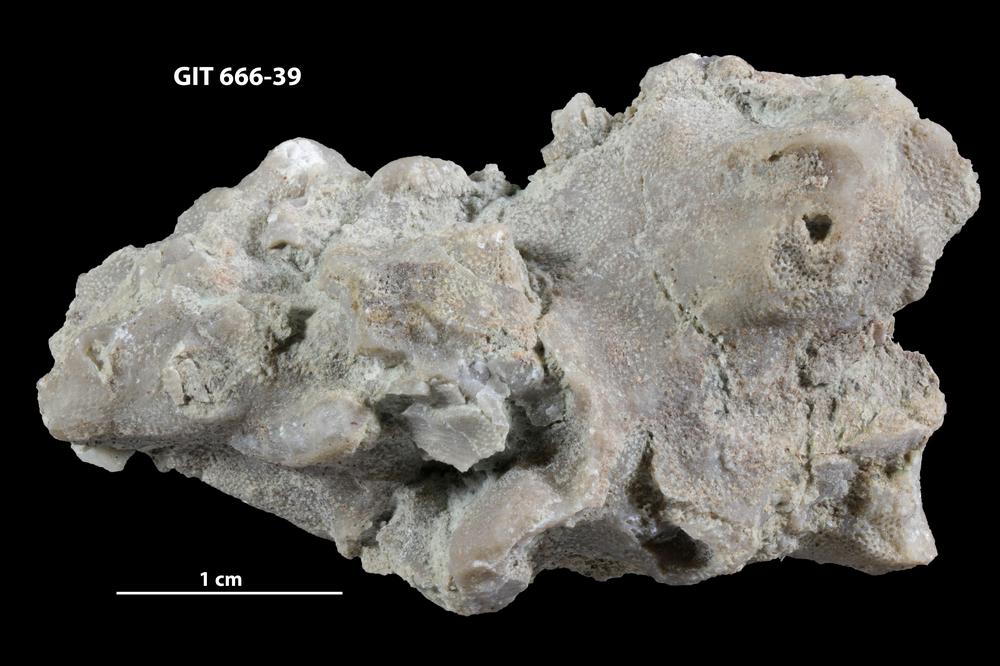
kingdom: Animalia
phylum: Bryozoa
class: Stenolaemata
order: Cystoporida
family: Fistuliporidae
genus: Fistulipora
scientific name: Fistulipora przhidolensis
